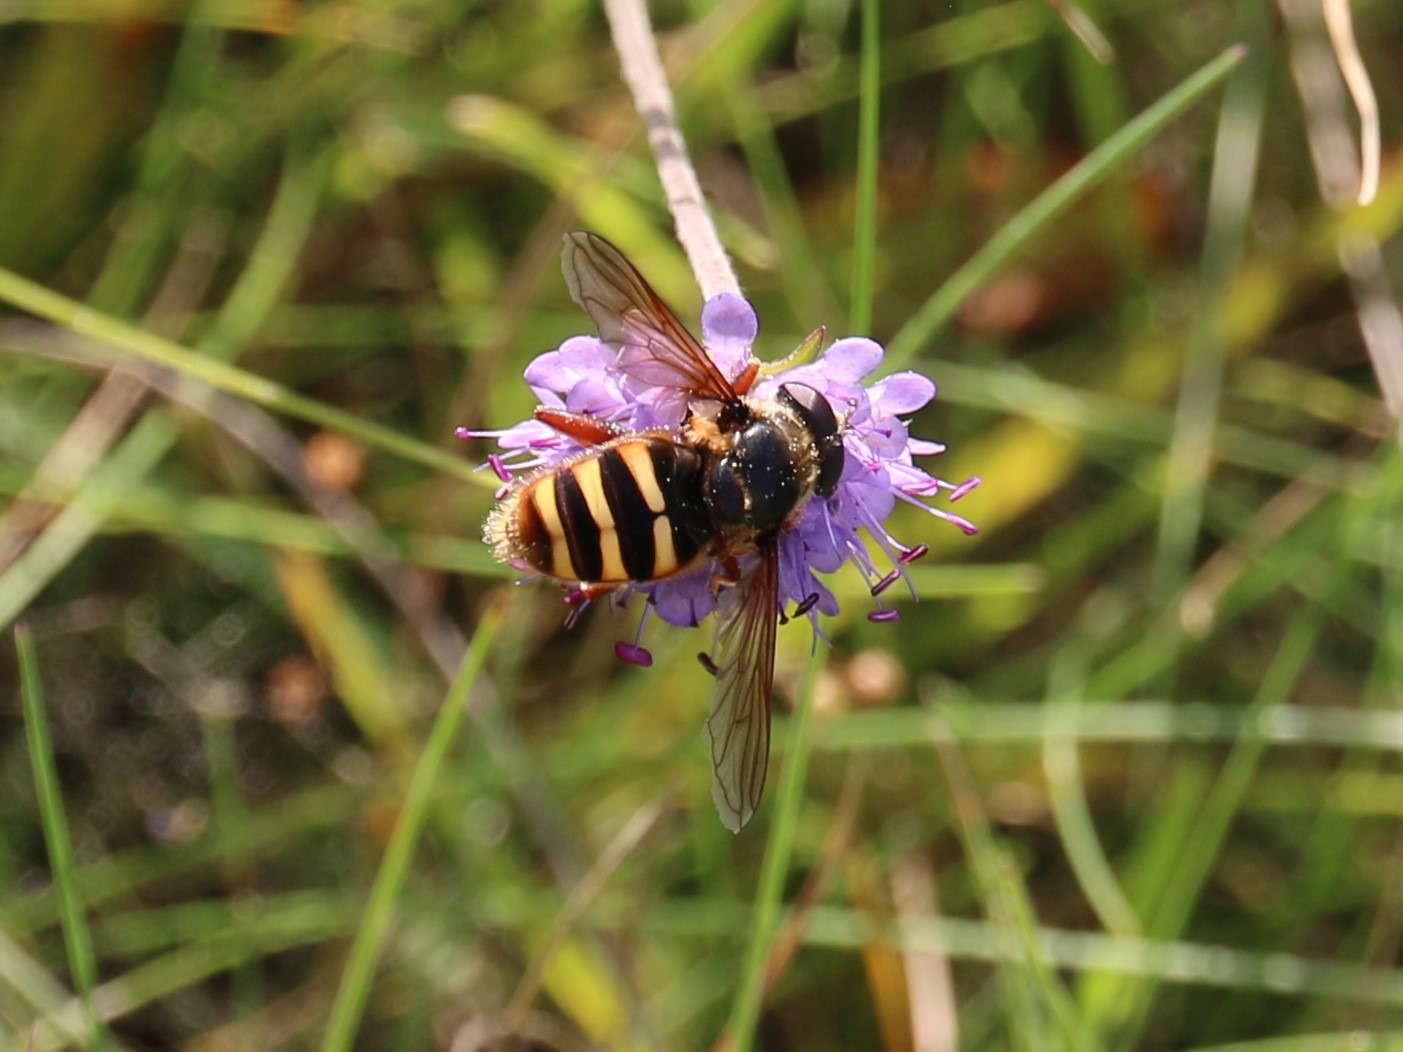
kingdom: Animalia
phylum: Arthropoda
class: Insecta
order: Diptera
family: Syrphidae
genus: Sericomyia
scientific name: Sericomyia silentis
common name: Tørve-silkesvirreflue
